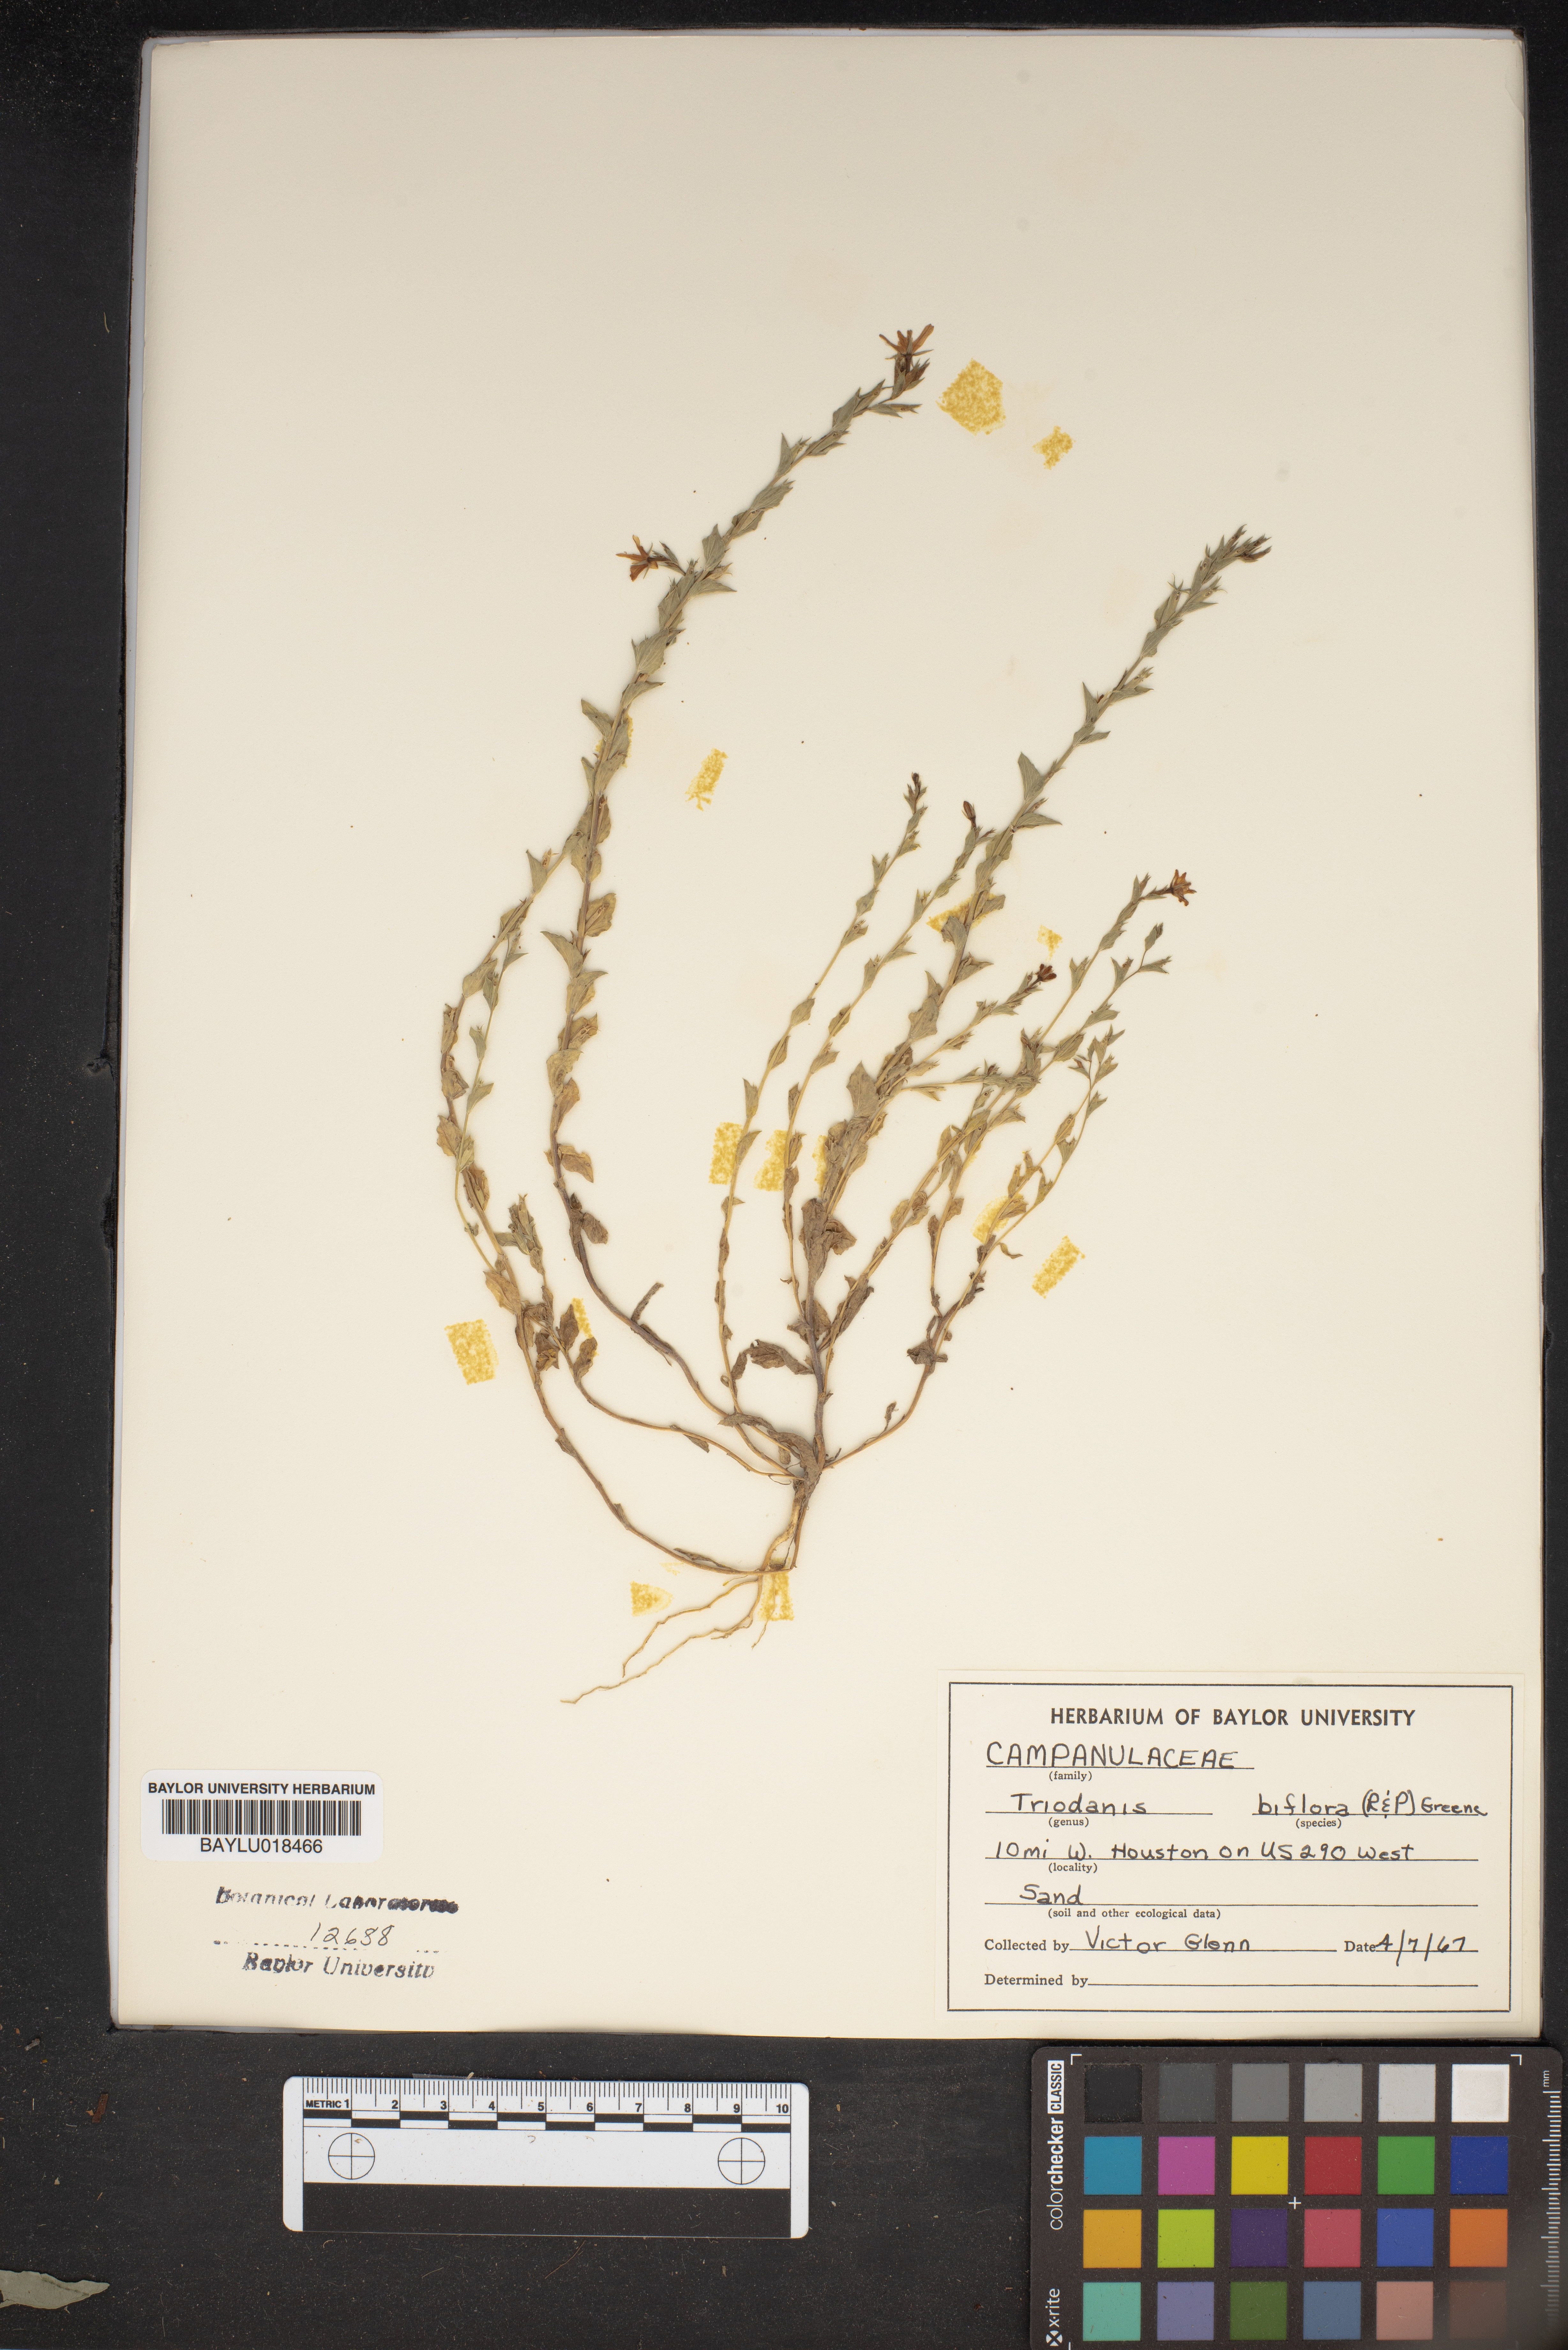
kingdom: Plantae
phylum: Tracheophyta
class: Magnoliopsida
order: Asterales
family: Campanulaceae
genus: Triodanis
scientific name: Triodanis perfoliata
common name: Clasping venus' looking-glass
